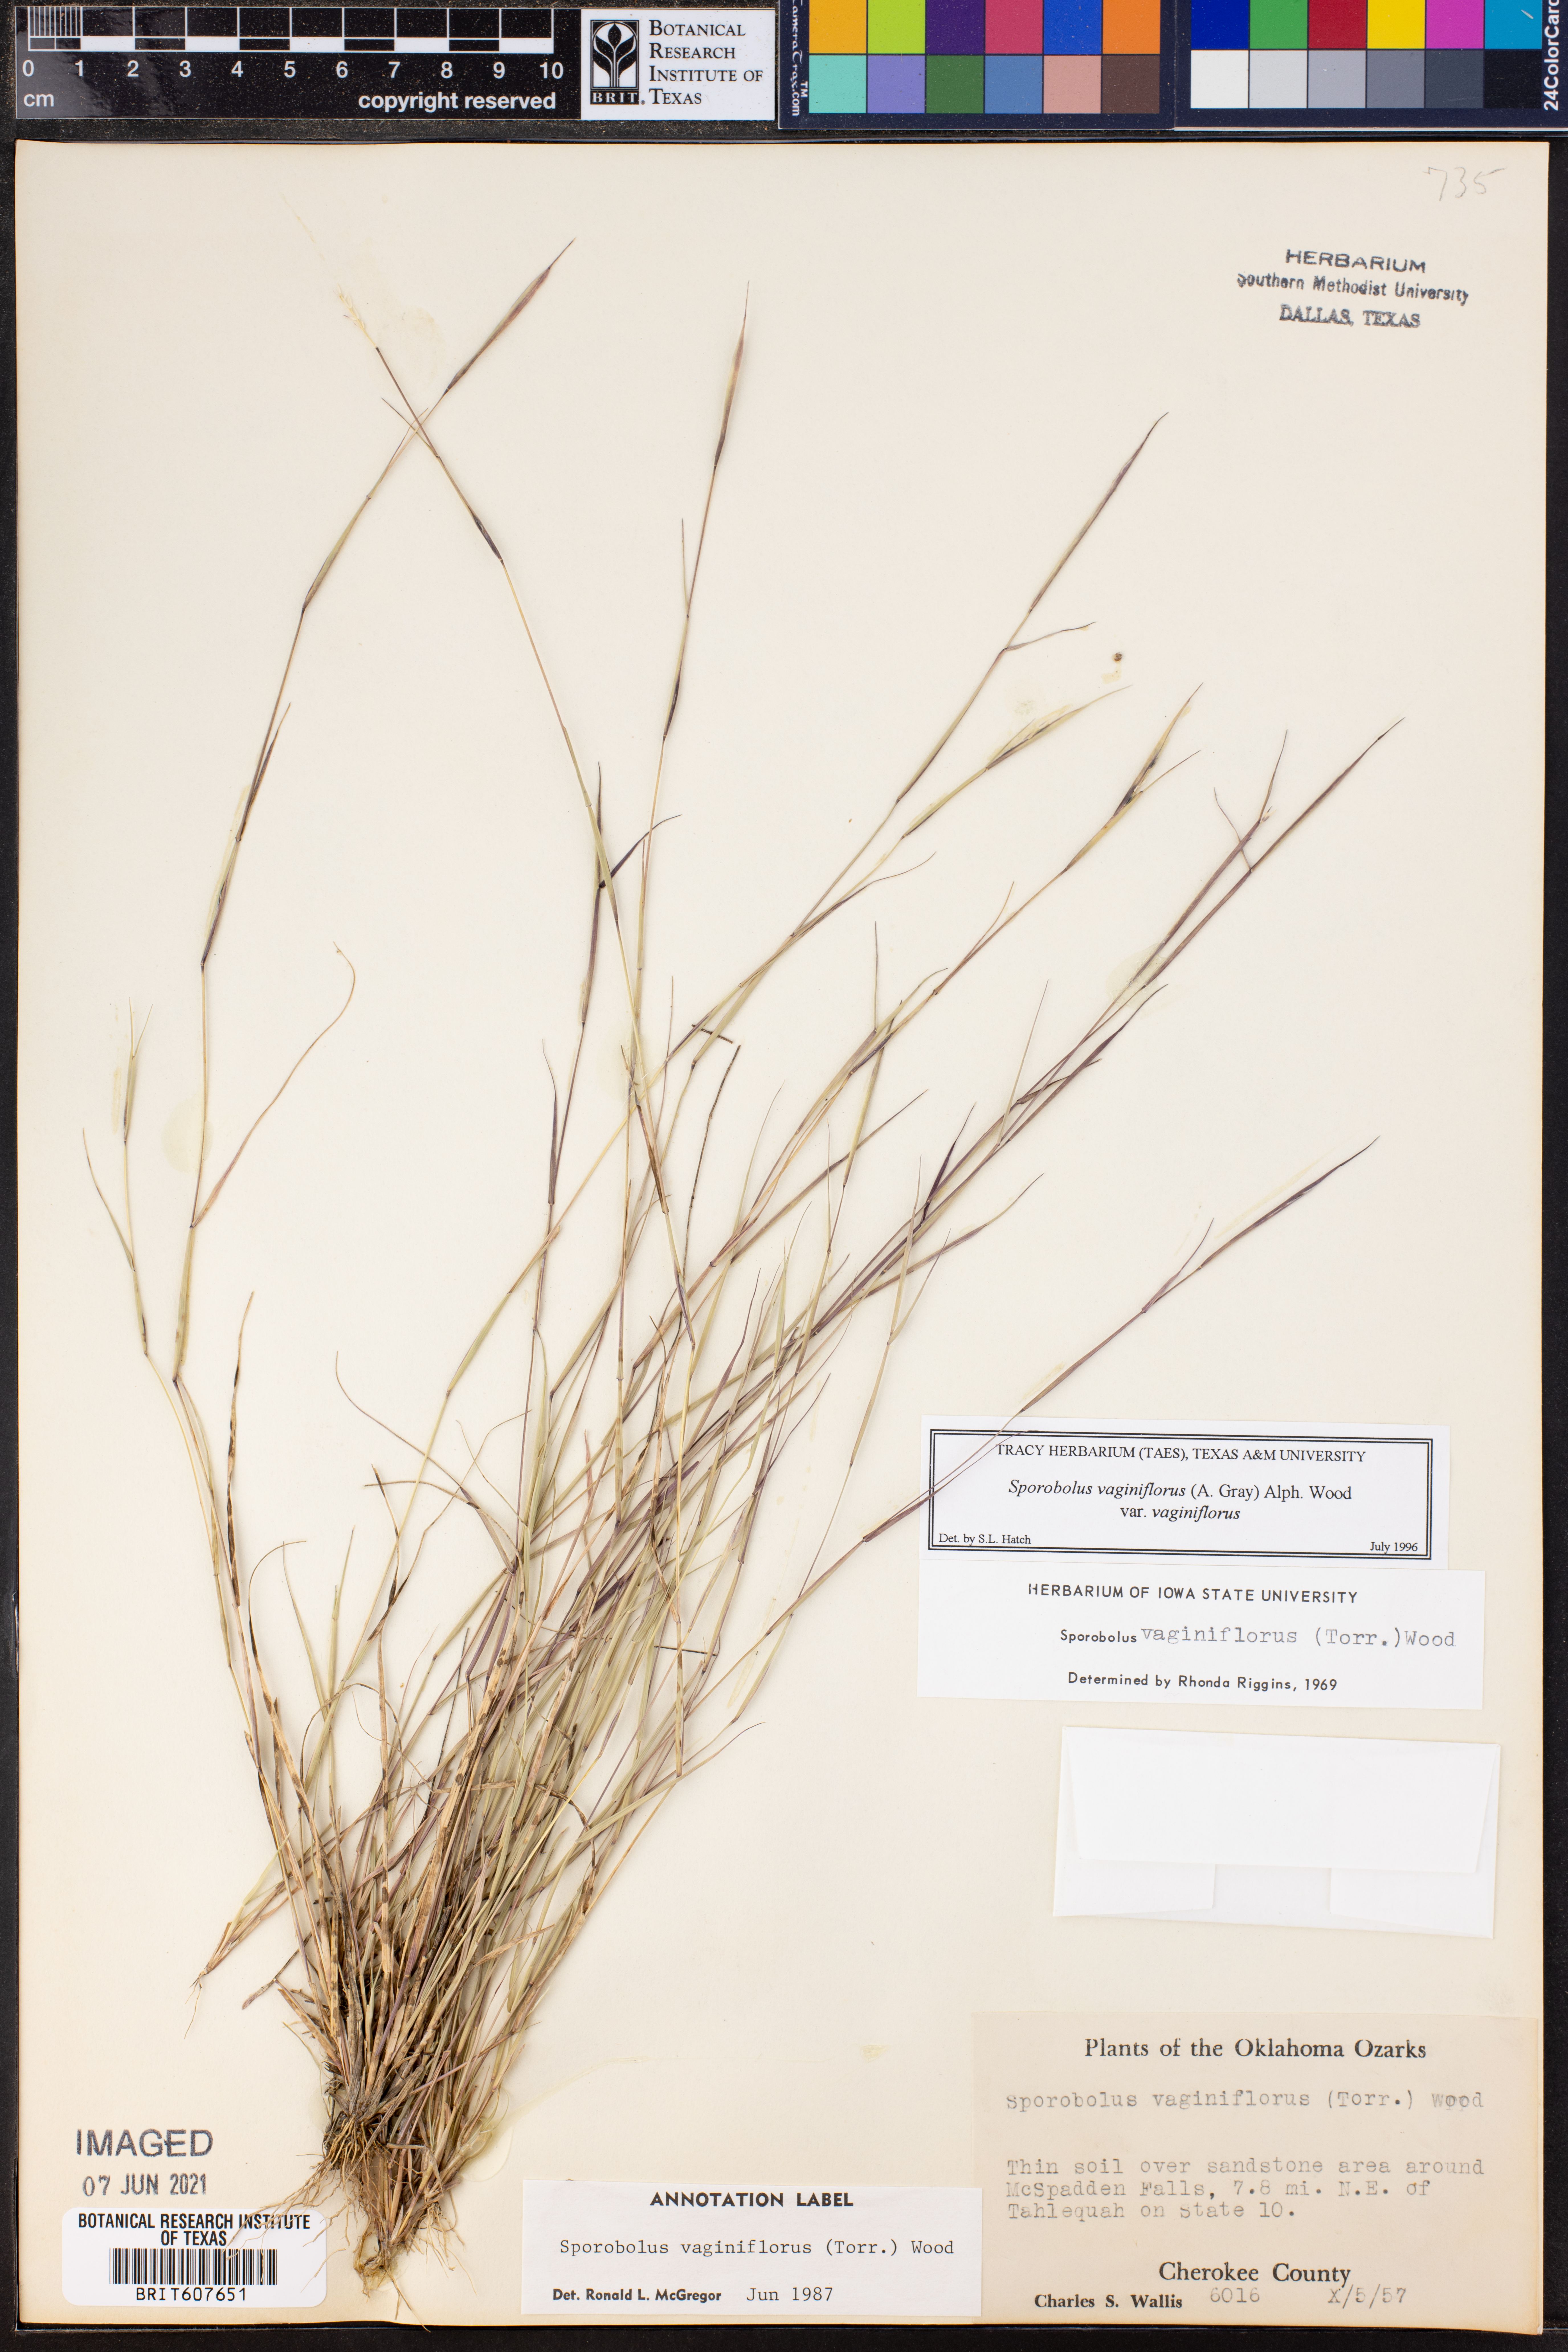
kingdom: Plantae
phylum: Tracheophyta
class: Liliopsida
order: Poales
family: Poaceae
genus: Sporobolus
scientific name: Sporobolus vaginiflorus
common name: Poverty dropseed
